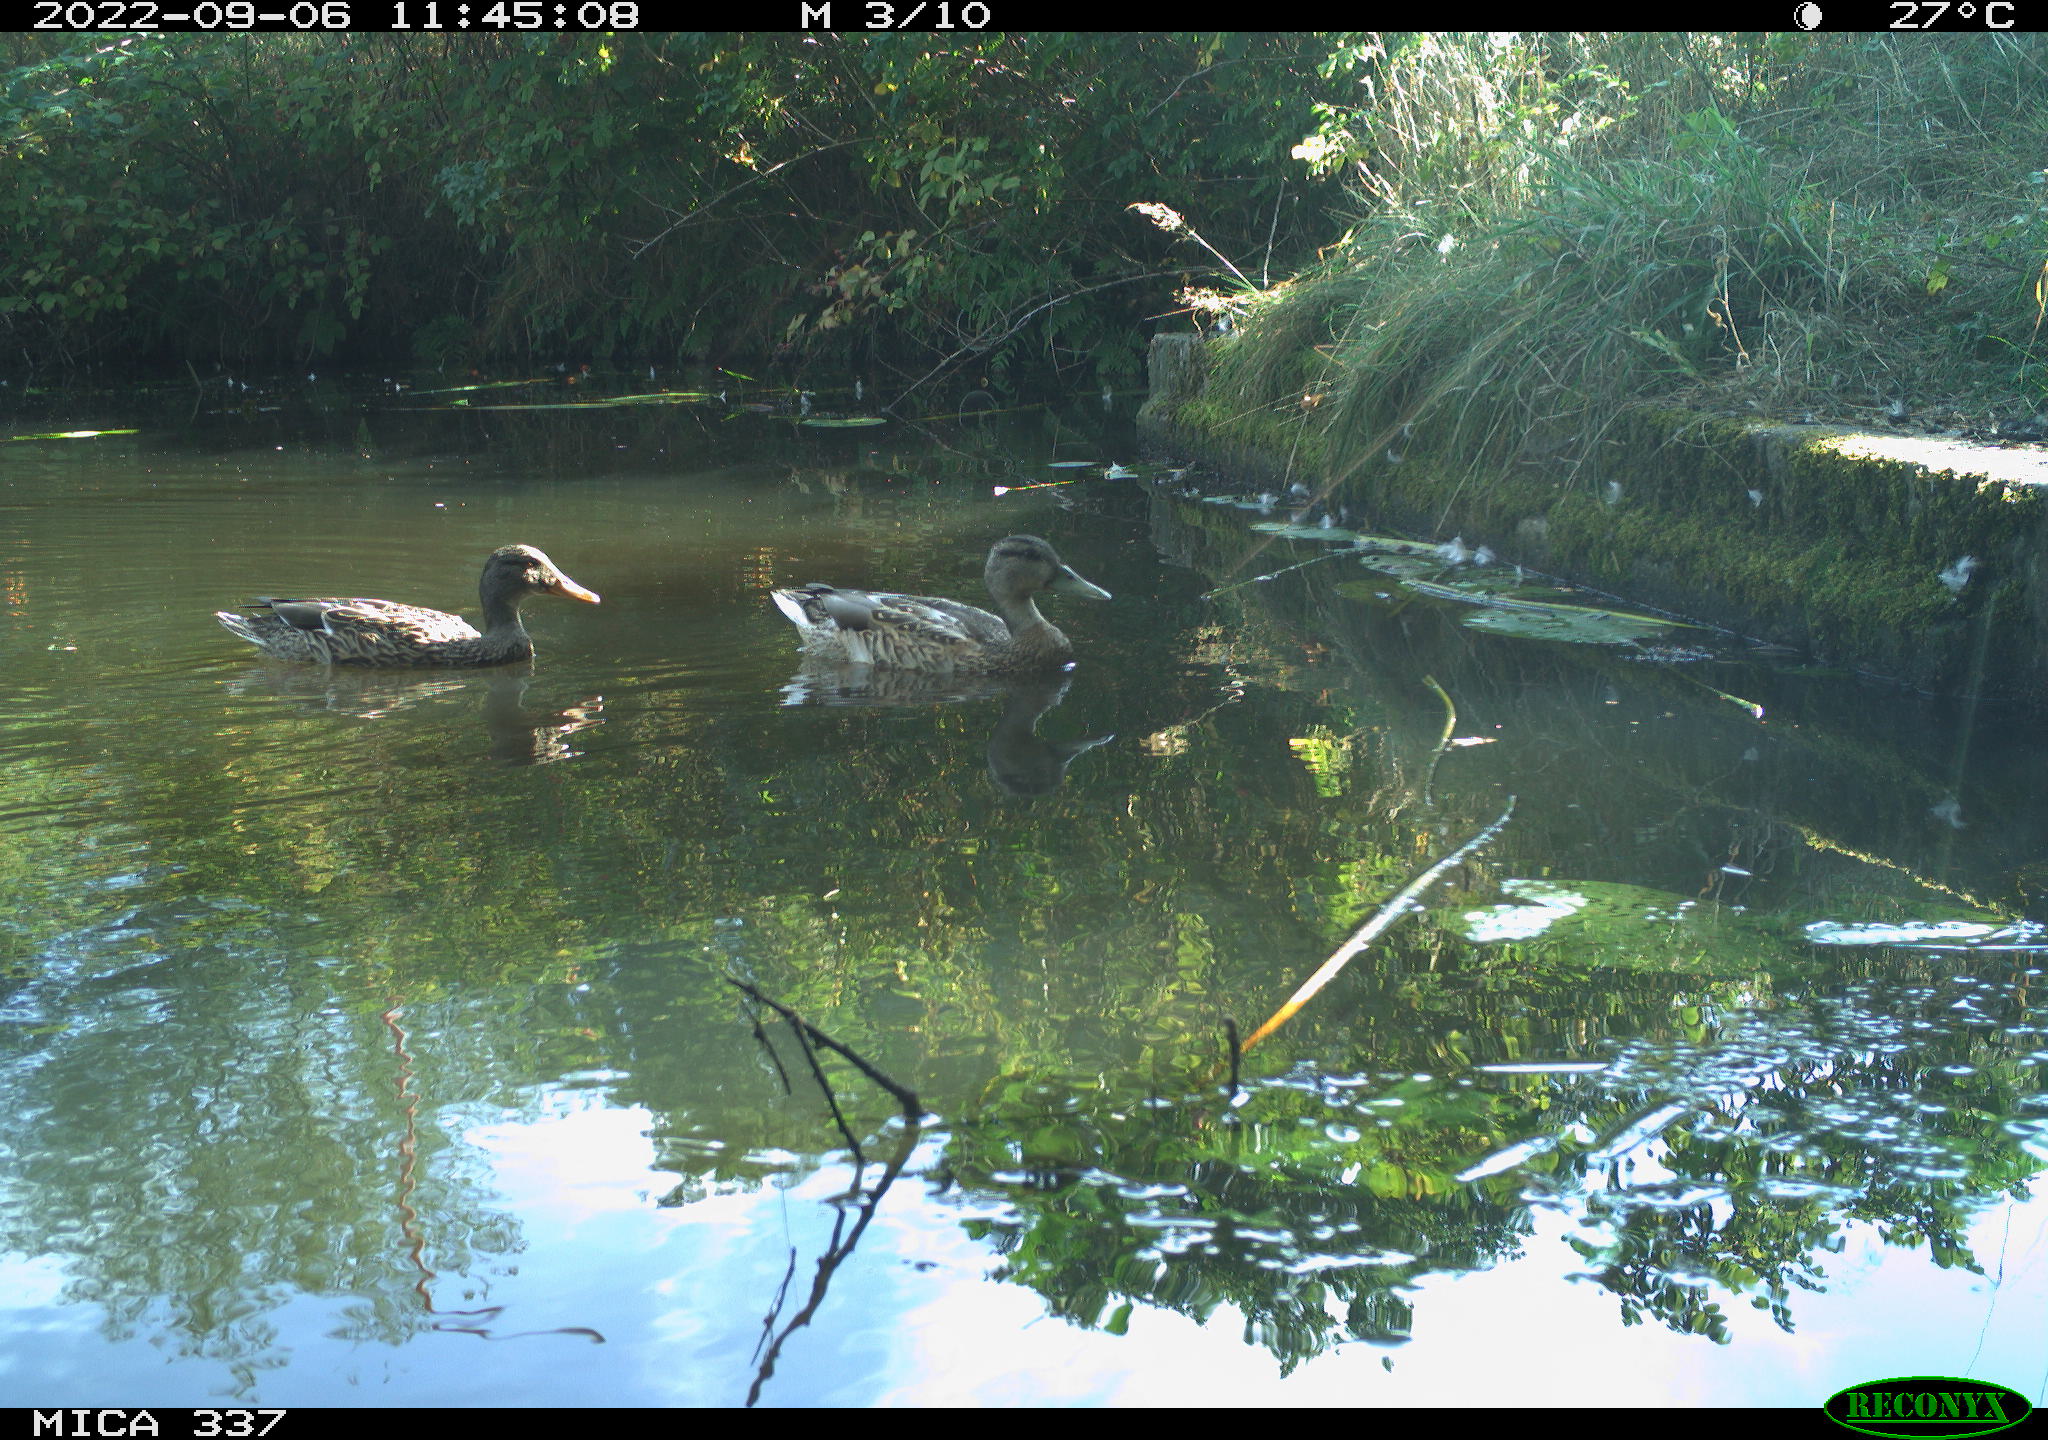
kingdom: Animalia
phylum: Chordata
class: Aves
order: Anseriformes
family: Anatidae
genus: Anas
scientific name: Anas platyrhynchos
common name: Mallard
